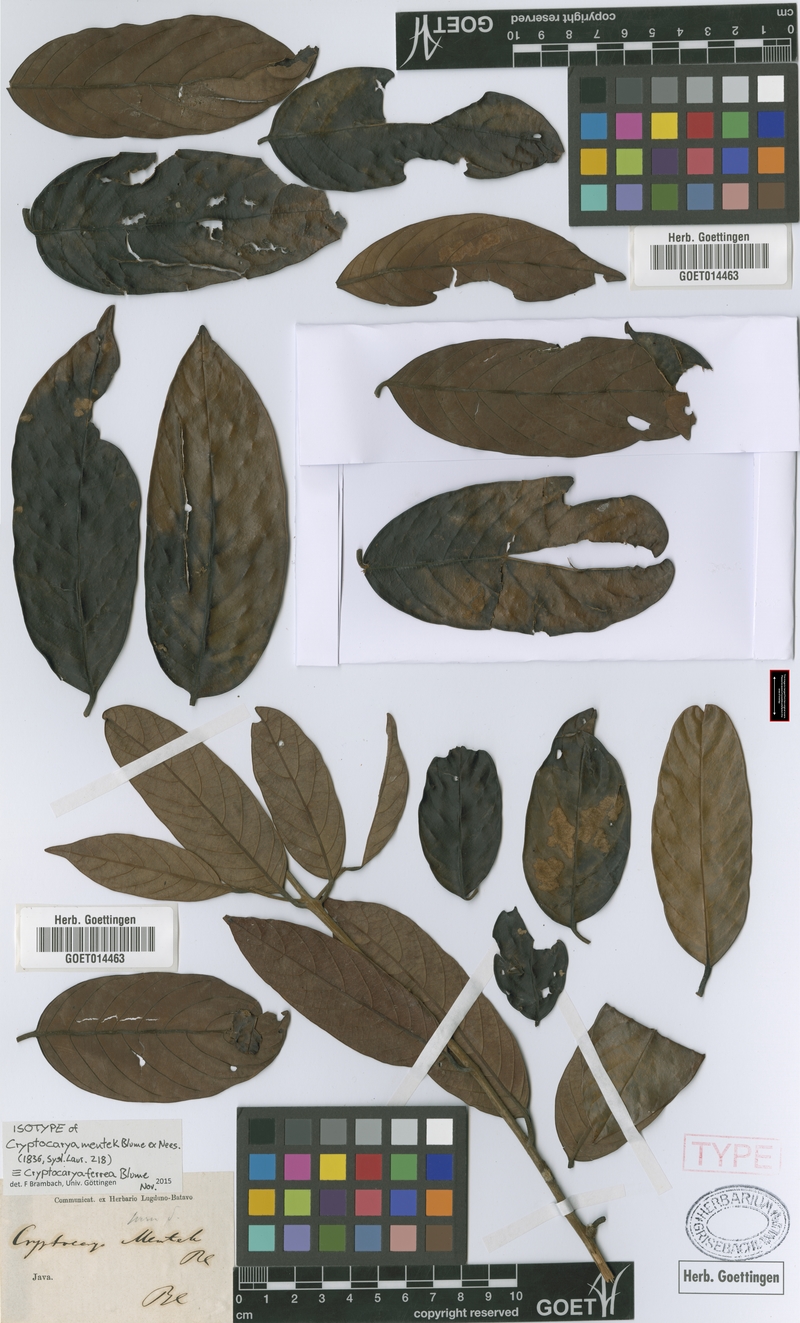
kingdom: Plantae
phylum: Tracheophyta
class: Magnoliopsida
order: Laurales
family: Lauraceae
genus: Cryptocarya
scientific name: Cryptocarya ferrea
